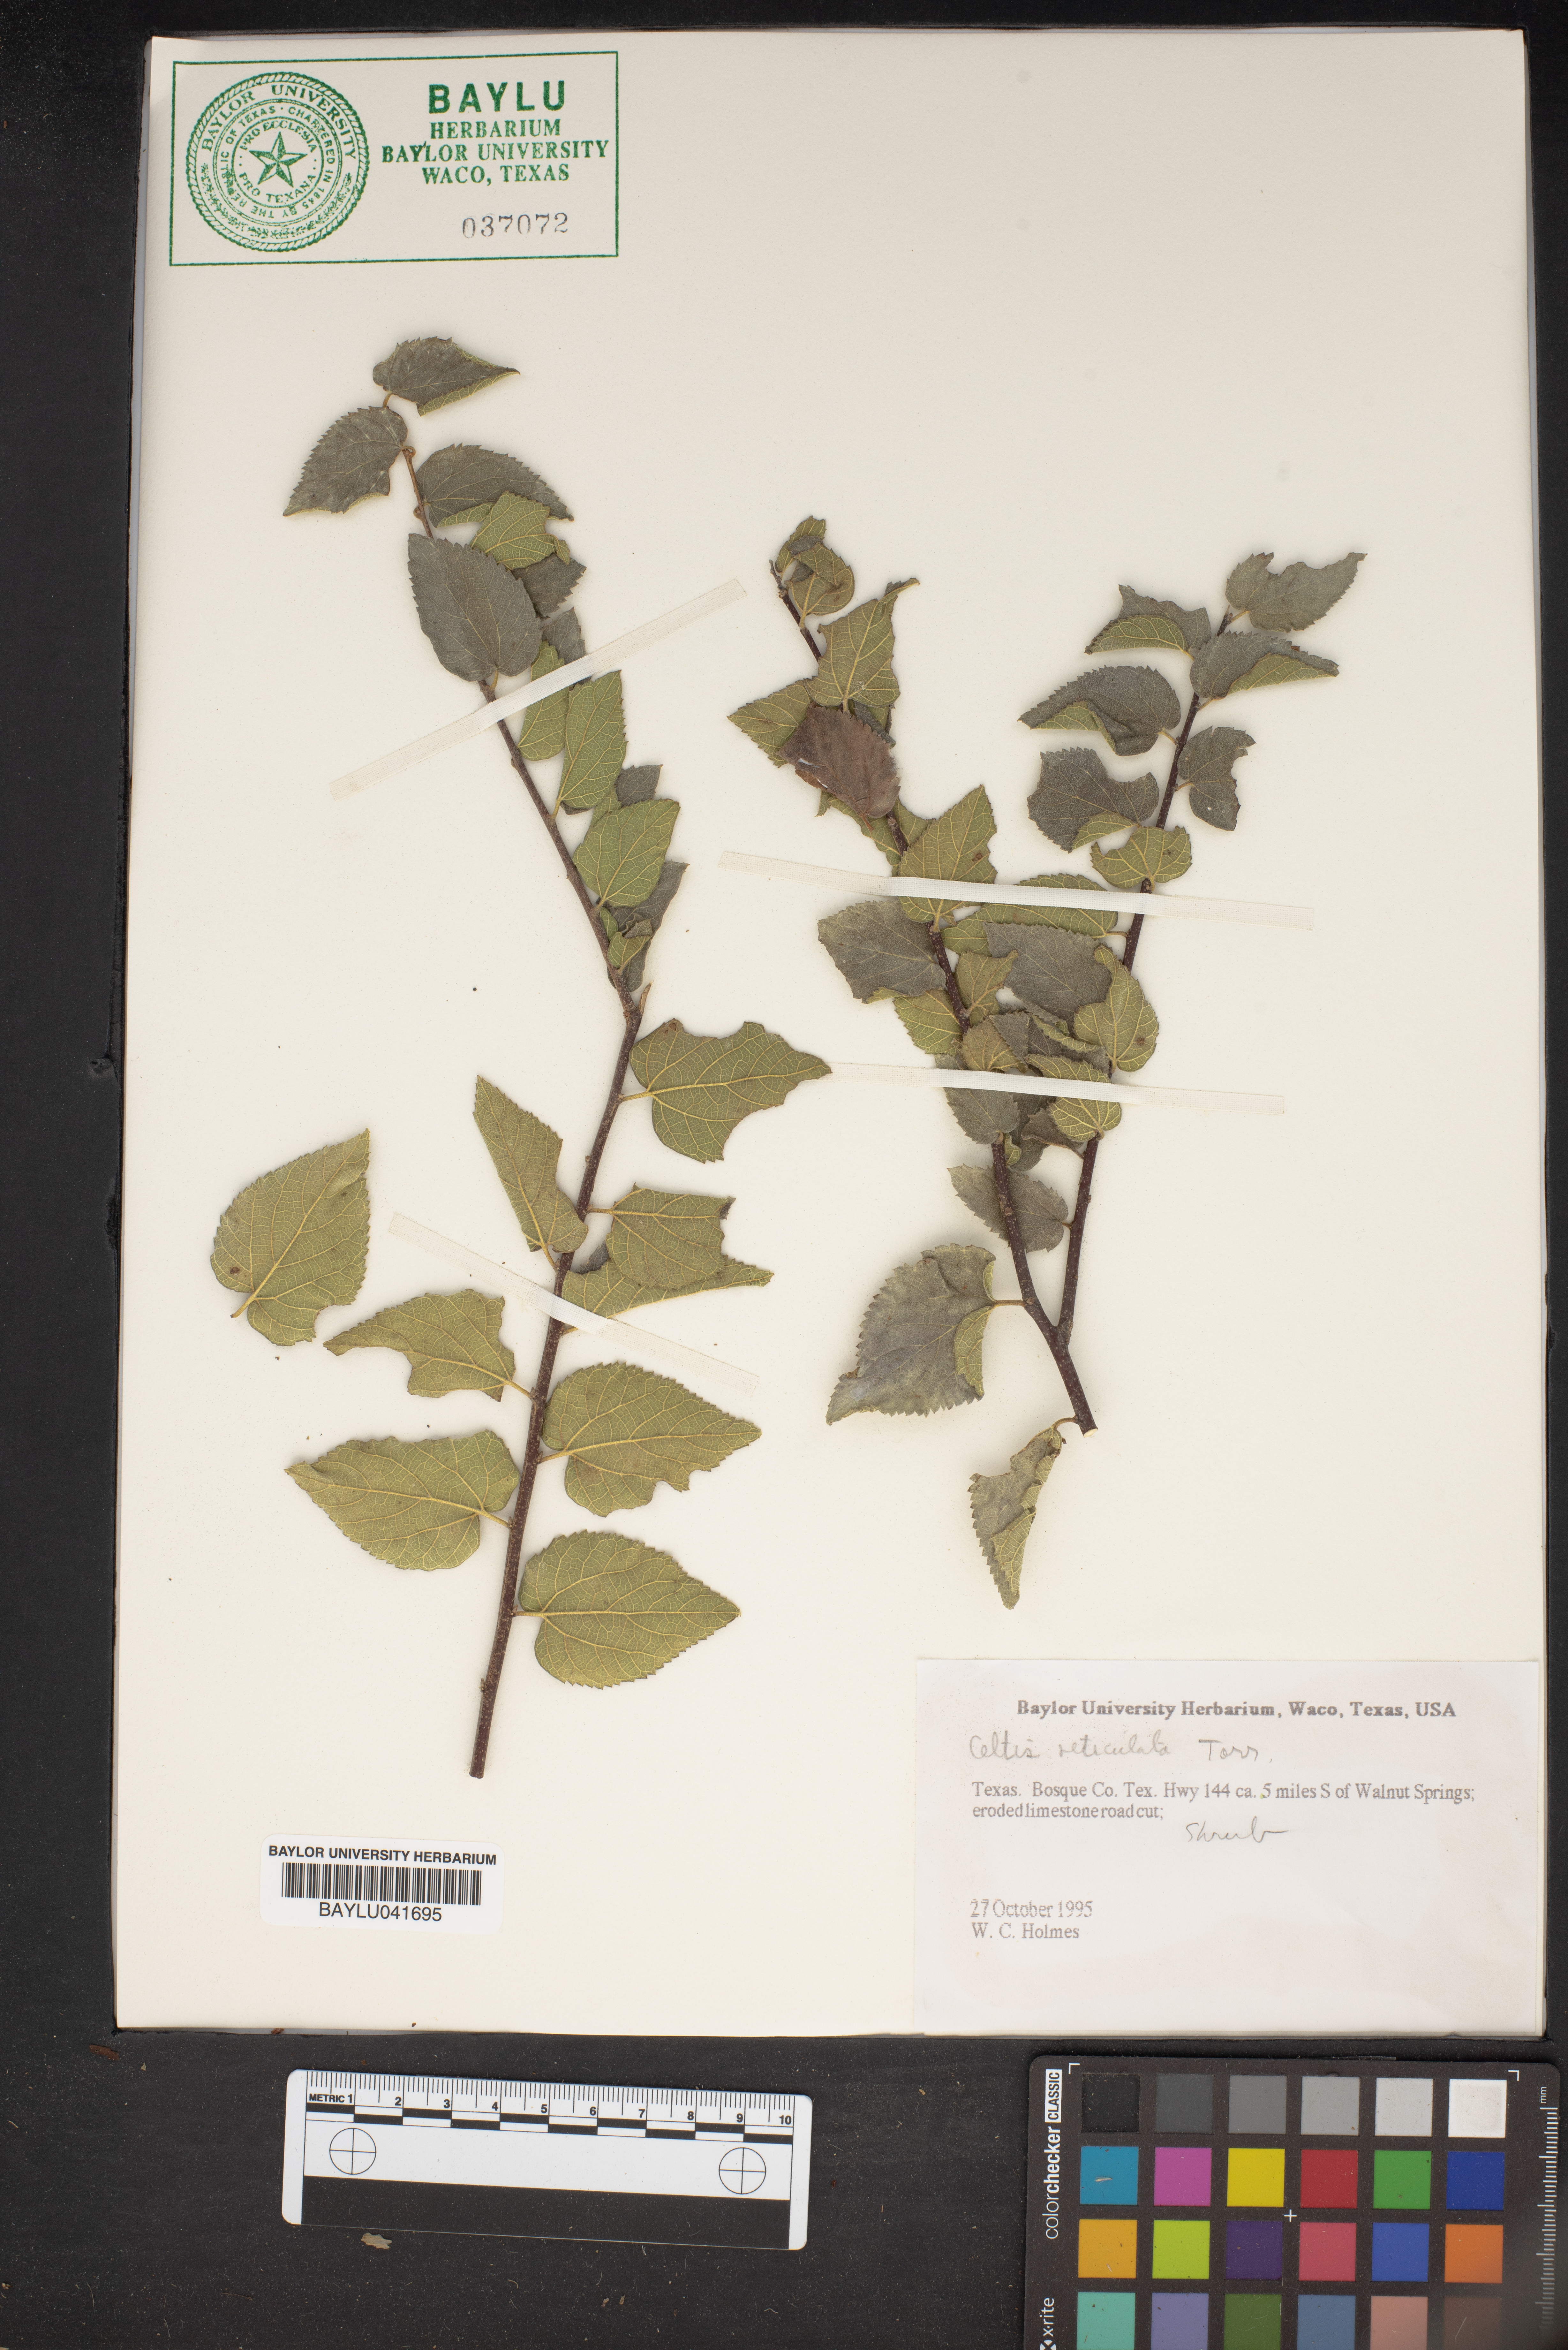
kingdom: Plantae
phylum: Tracheophyta
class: Magnoliopsida
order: Rosales
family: Cannabaceae
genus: Celtis
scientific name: Celtis reticulata
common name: Netleaf hackberry
